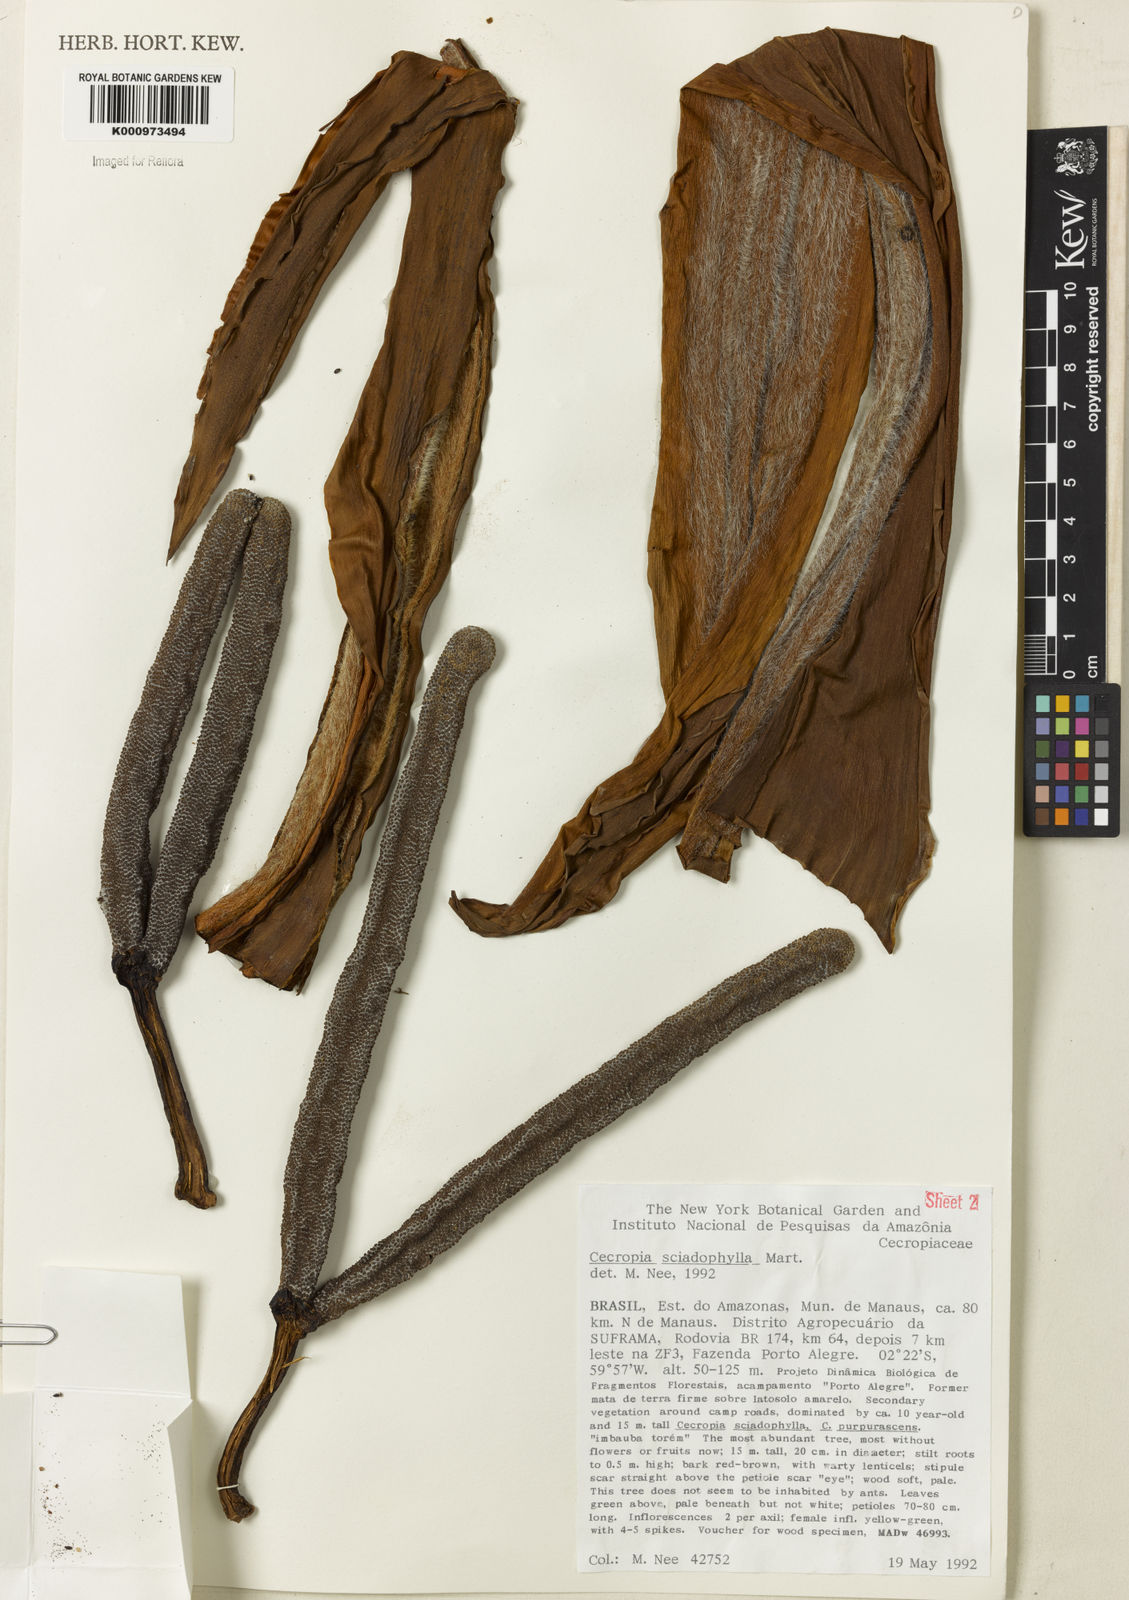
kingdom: Plantae
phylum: Tracheophyta
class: Magnoliopsida
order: Rosales
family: Urticaceae
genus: Cecropia
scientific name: Cecropia sciadophylla
